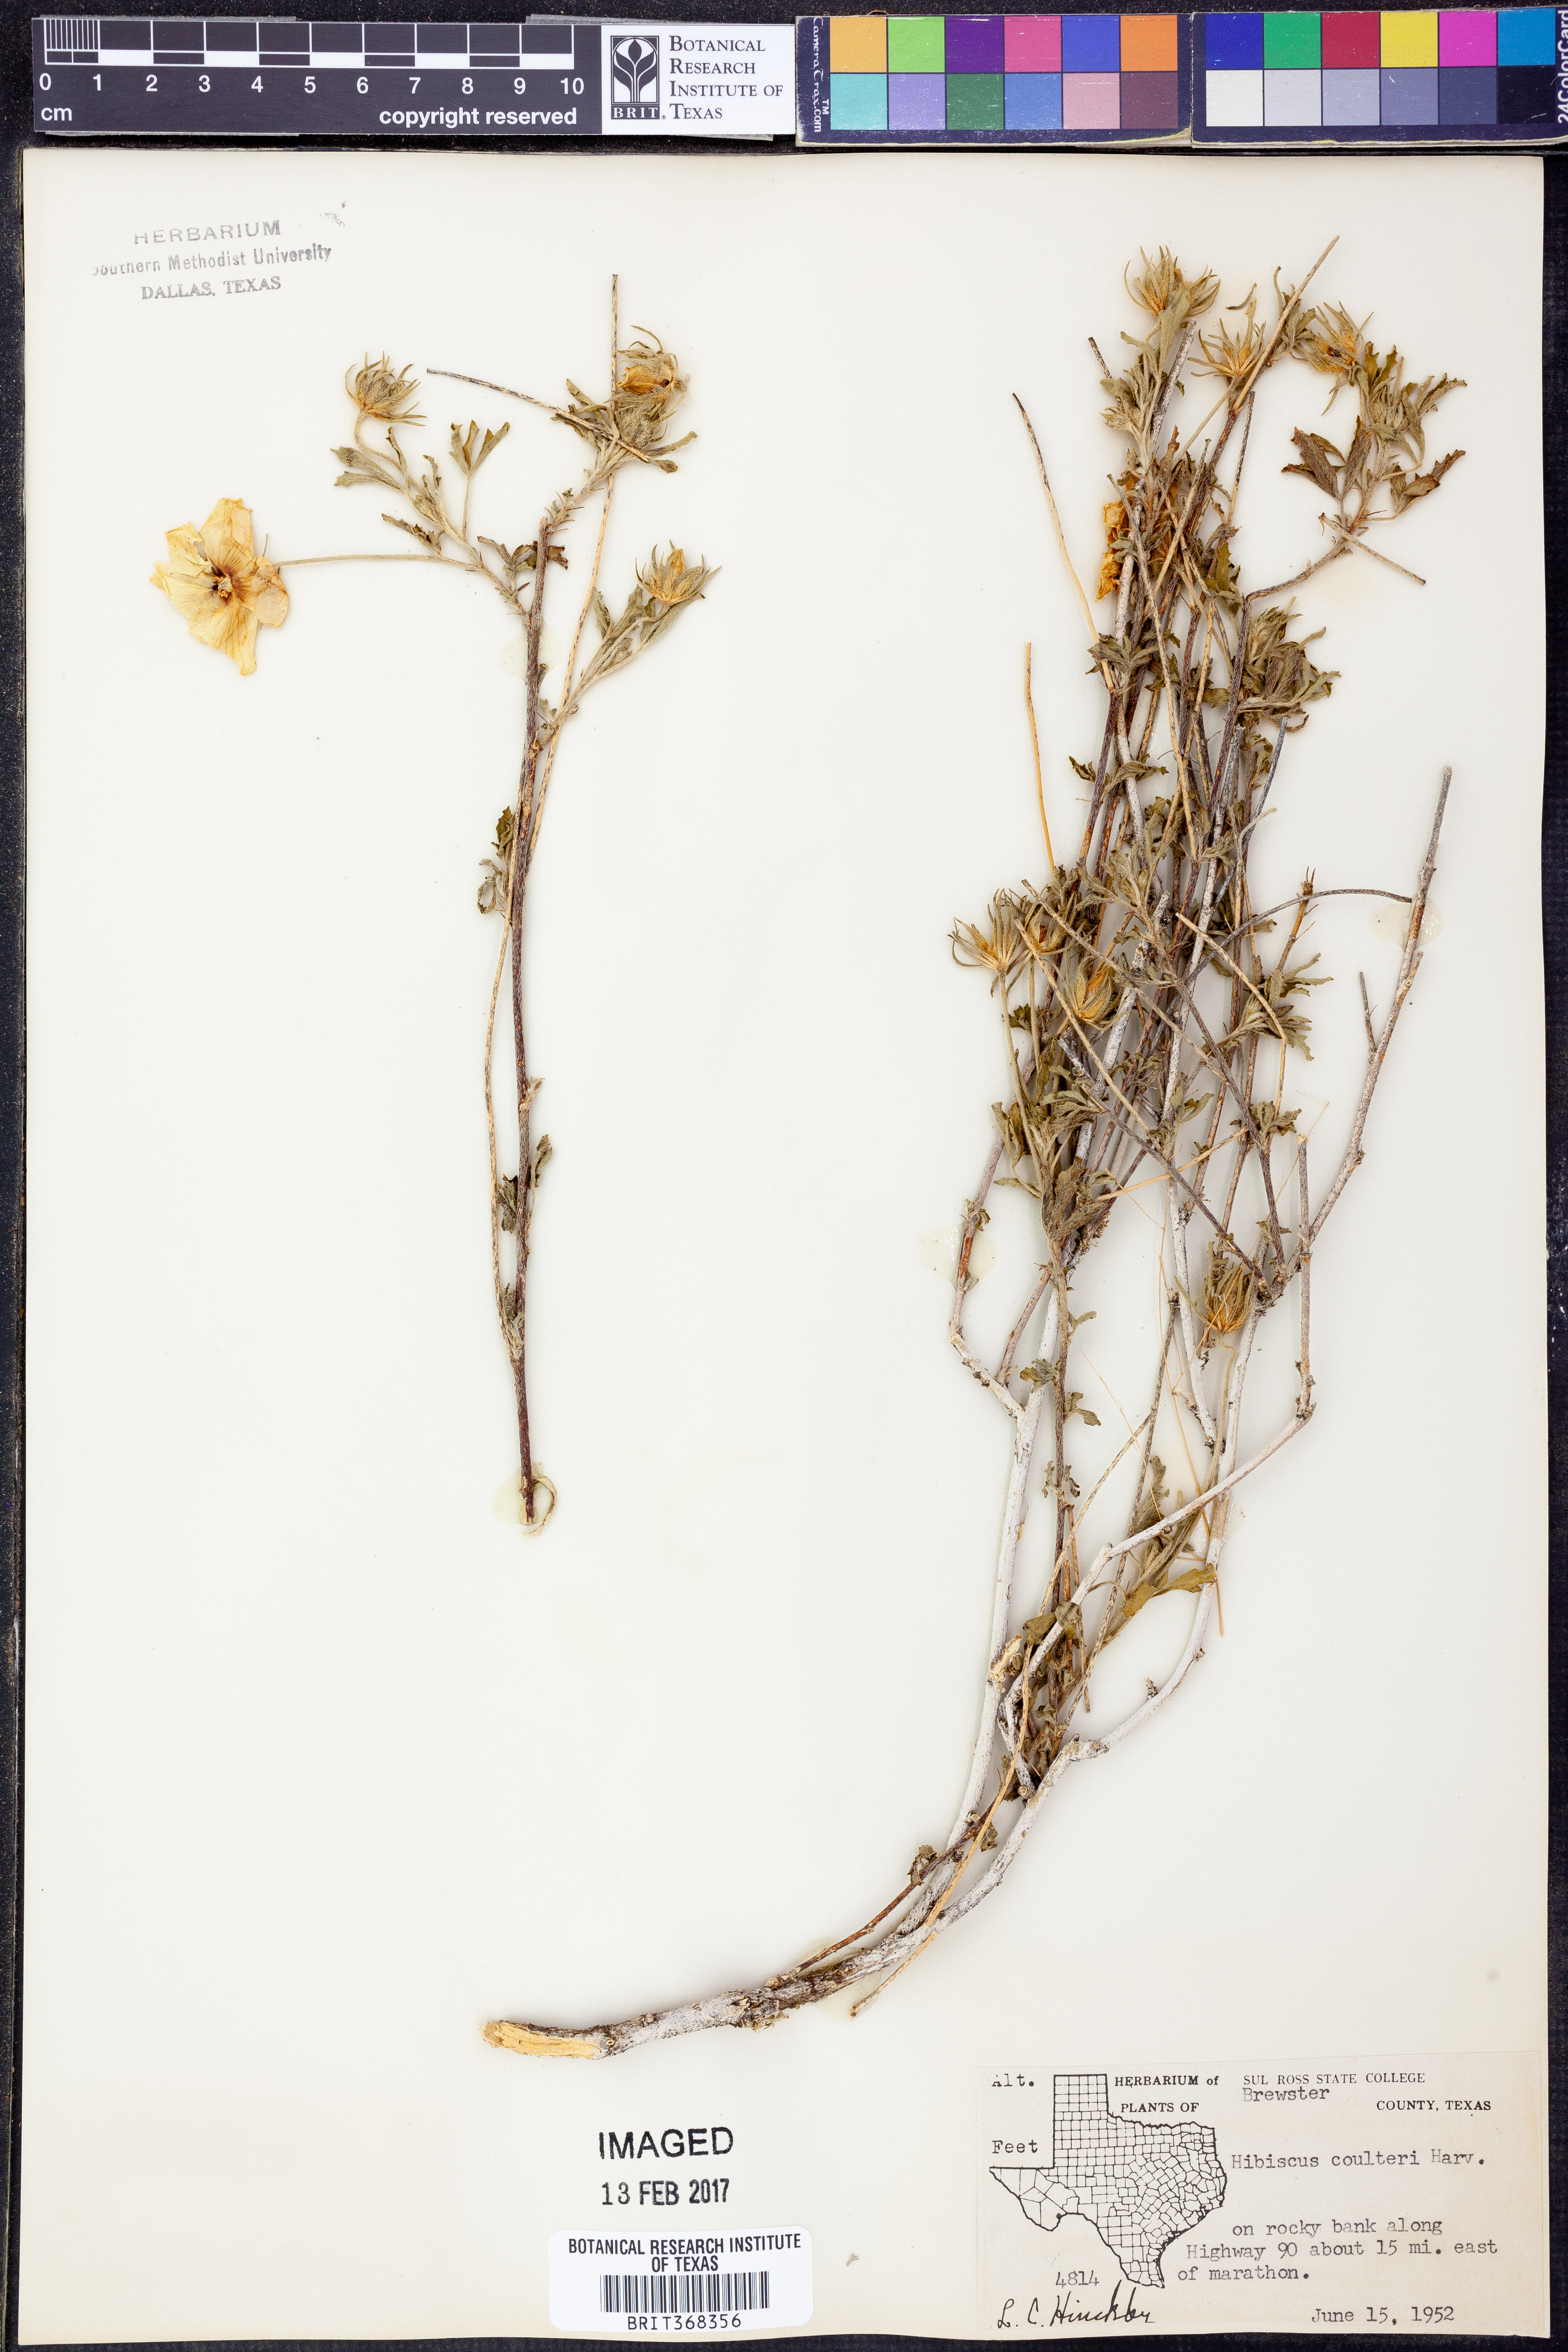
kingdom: Plantae
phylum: Tracheophyta
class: Magnoliopsida
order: Malvales
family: Malvaceae
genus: Hibiscus
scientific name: Hibiscus coulteri
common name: Desert rose-mallow
